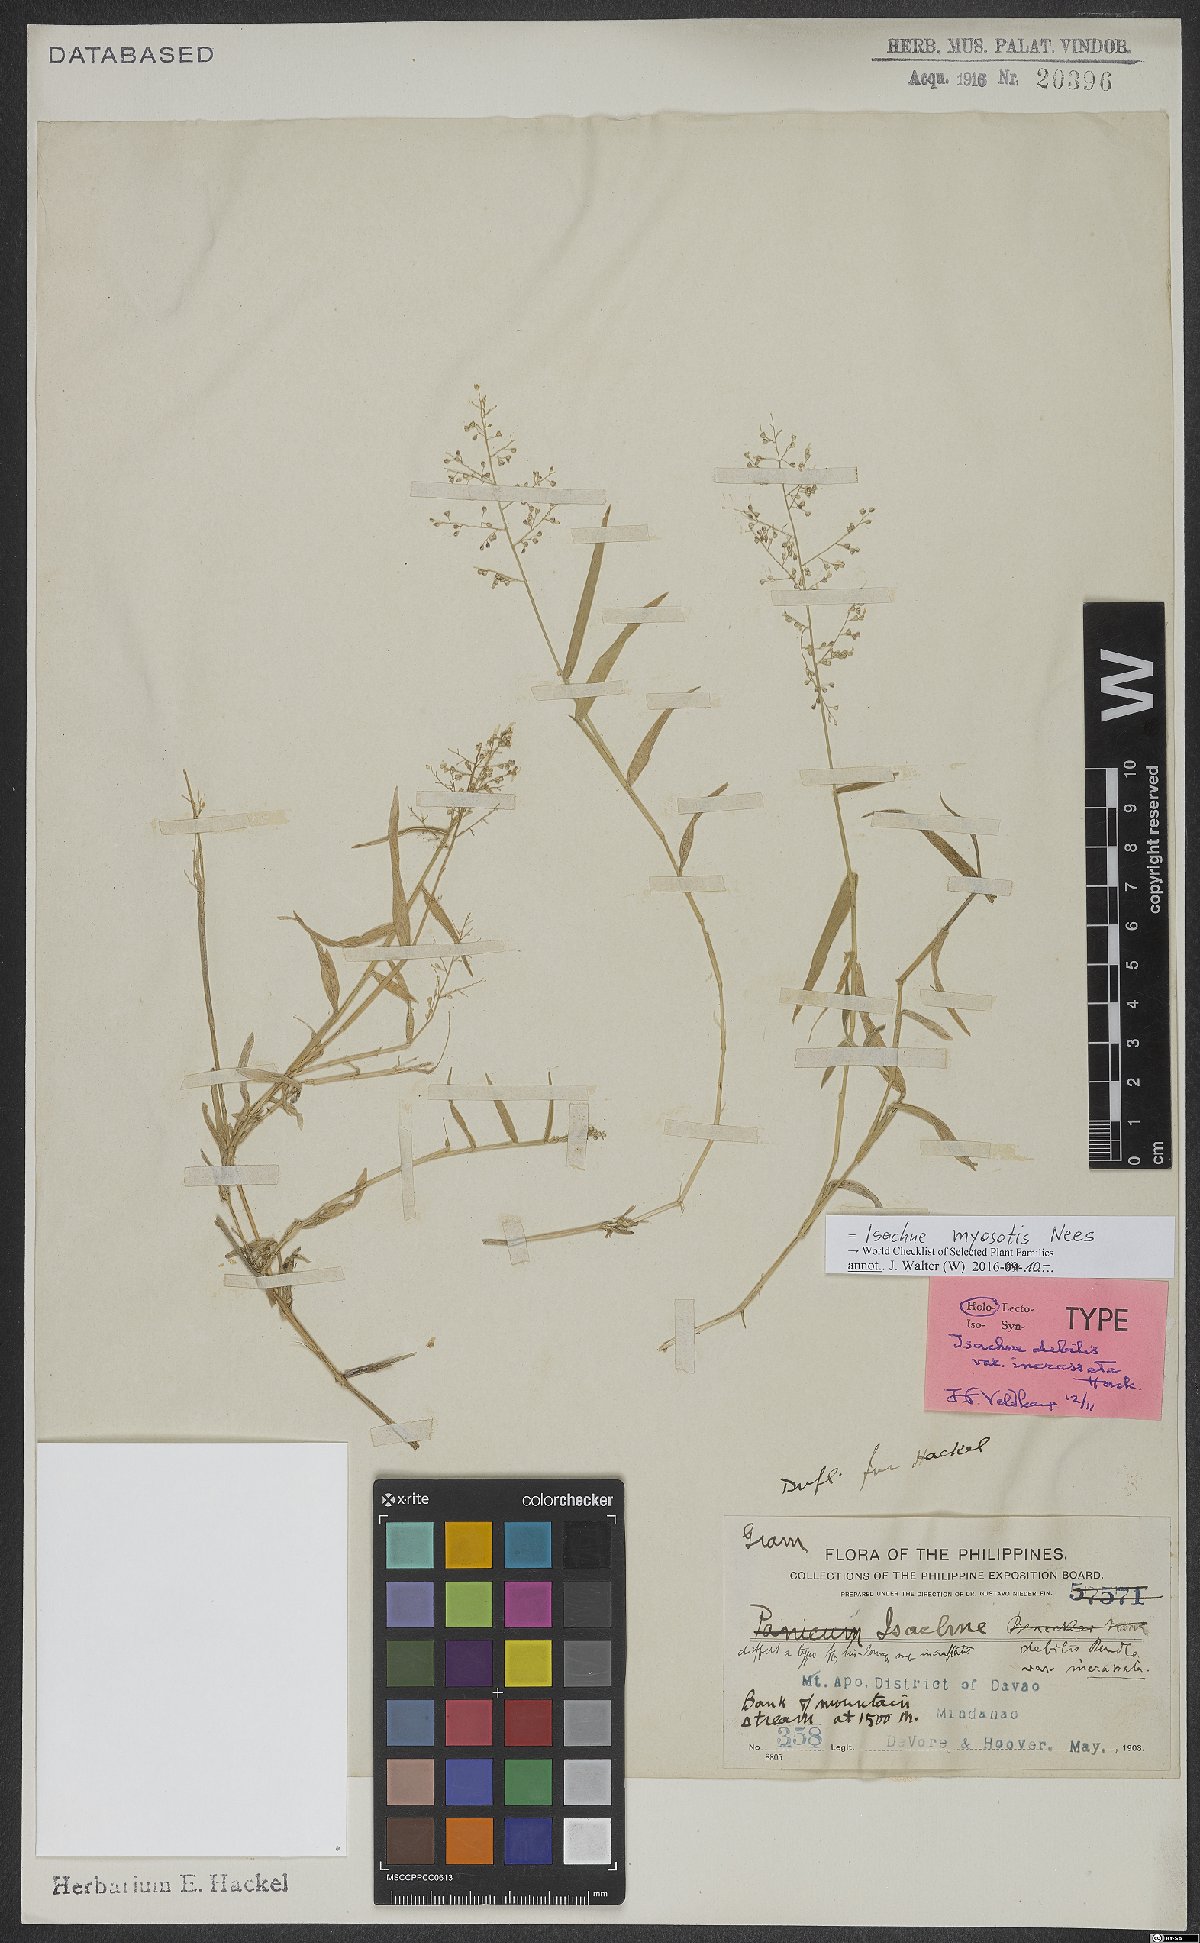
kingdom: Plantae
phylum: Tracheophyta
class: Liliopsida
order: Poales
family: Poaceae
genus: Isachne
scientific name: Isachne myosotis
